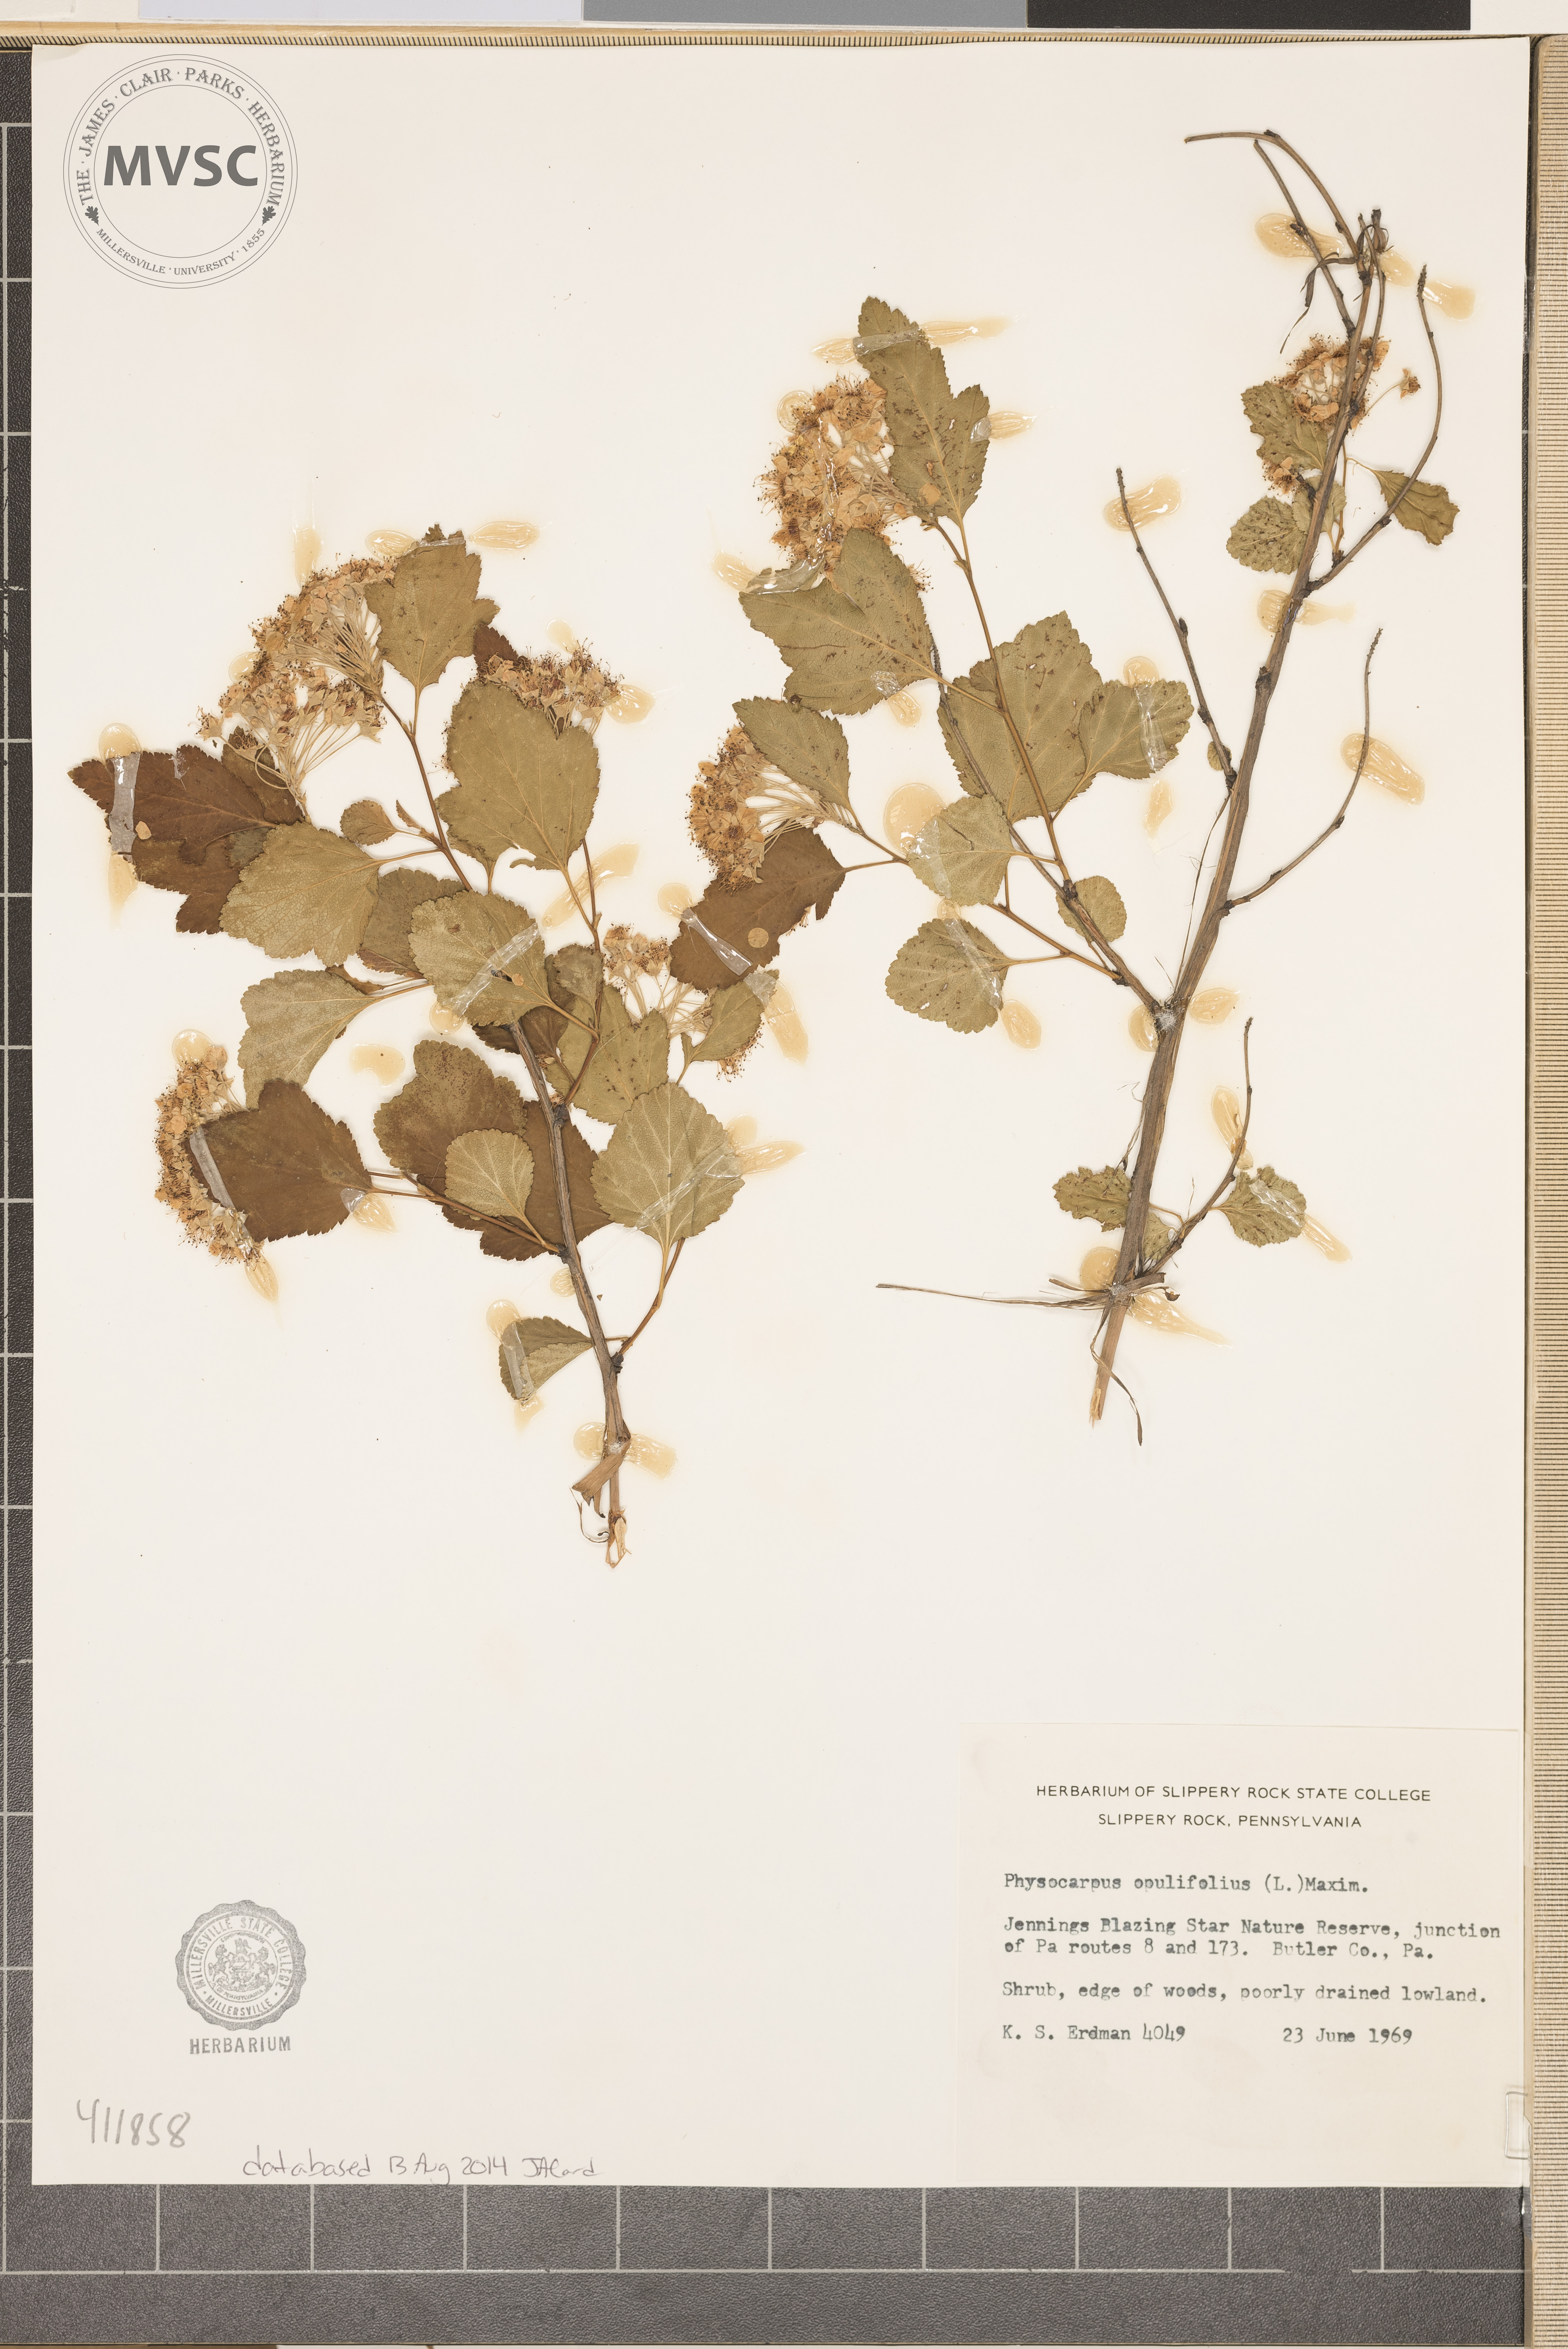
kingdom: Plantae
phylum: Tracheophyta
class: Magnoliopsida
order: Rosales
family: Rosaceae
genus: Physocarpus
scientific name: Physocarpus opulifolius
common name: Ninebark
